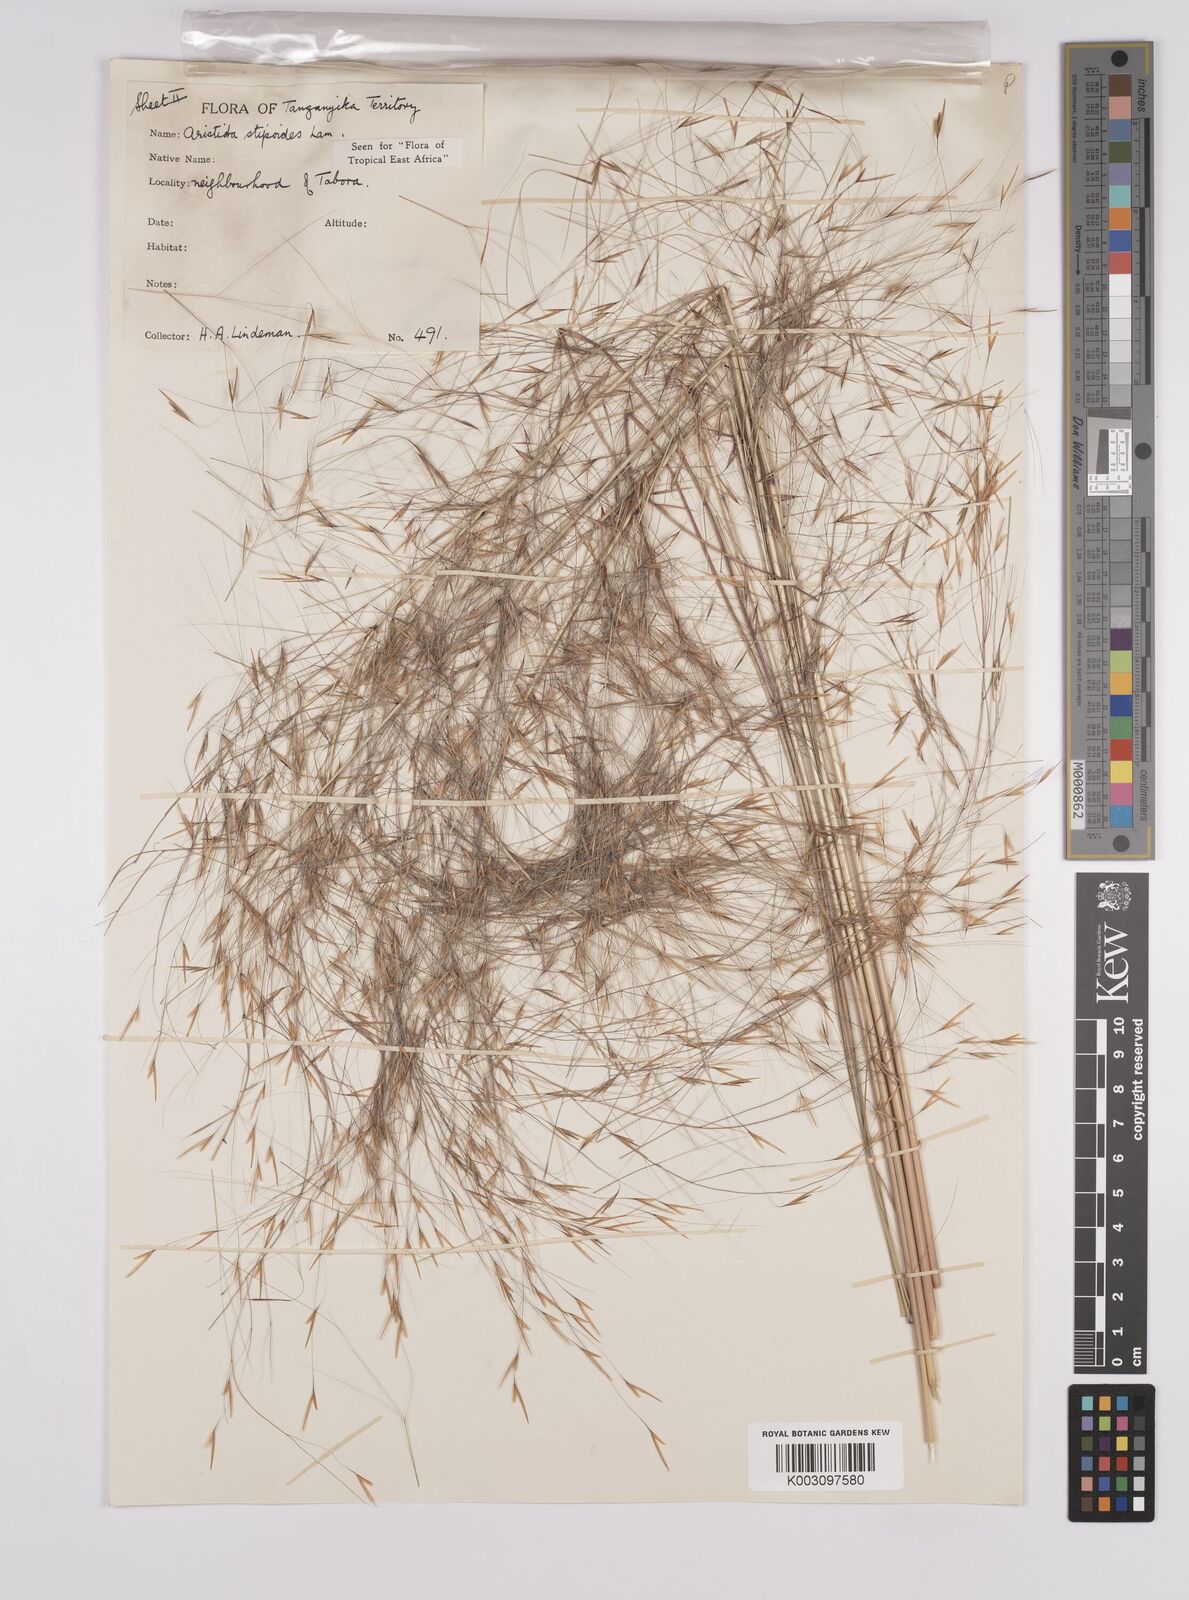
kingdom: Plantae
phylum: Tracheophyta
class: Liliopsida
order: Poales
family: Poaceae
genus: Aristida
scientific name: Aristida stipoides
